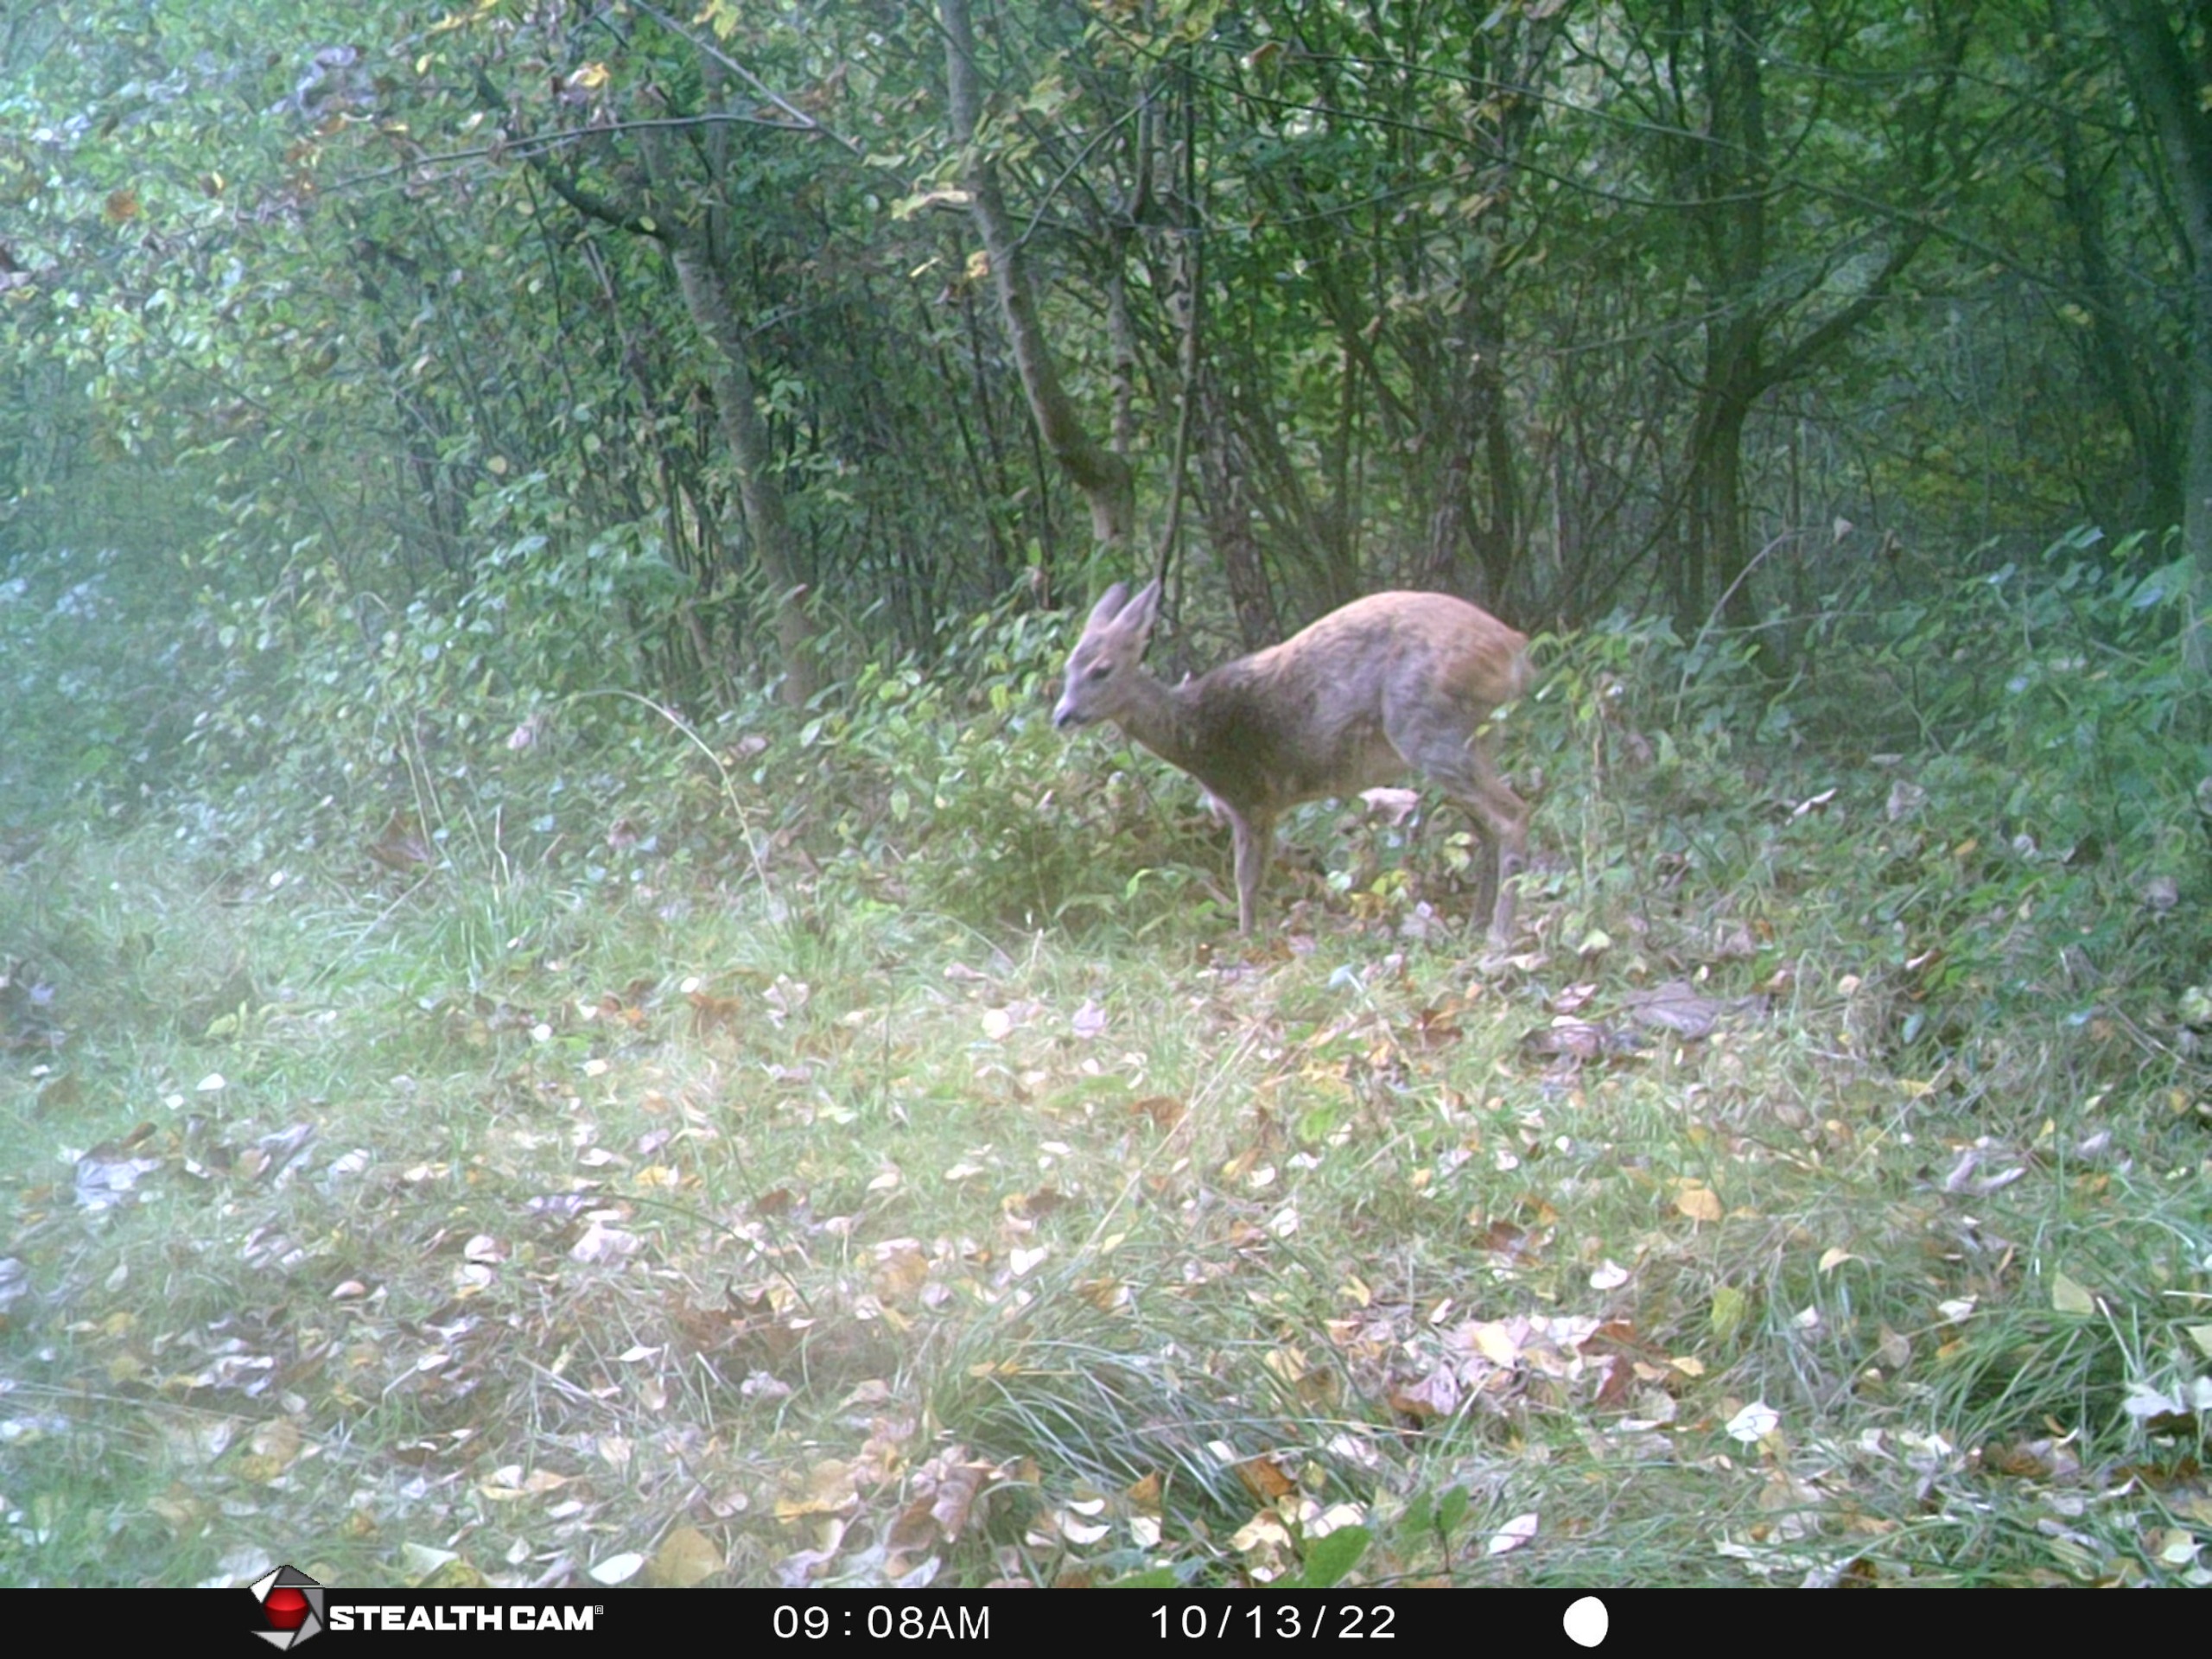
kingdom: Animalia
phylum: Chordata
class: Mammalia
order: Artiodactyla
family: Cervidae
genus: Capreolus
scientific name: Capreolus capreolus
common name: Rådyr
